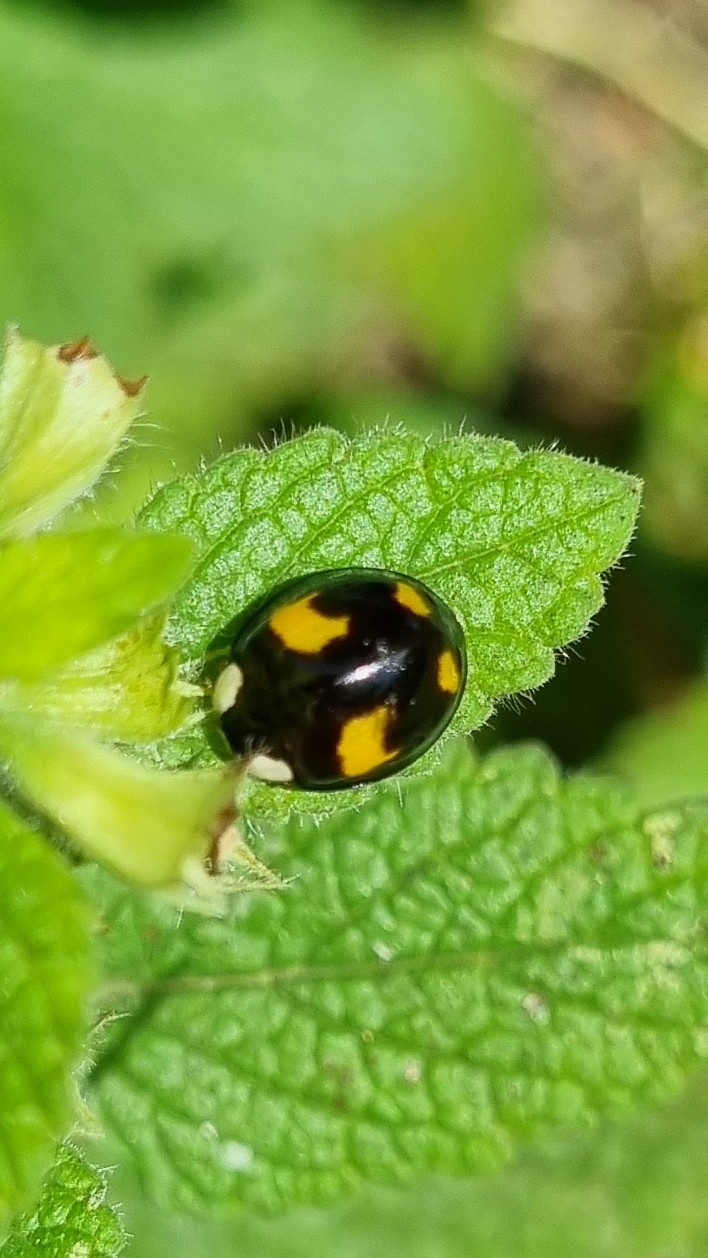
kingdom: Animalia
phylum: Arthropoda
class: Insecta
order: Coleoptera
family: Coccinellidae
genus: Harmonia
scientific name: Harmonia axyridis
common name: Harlekinmariehøne
